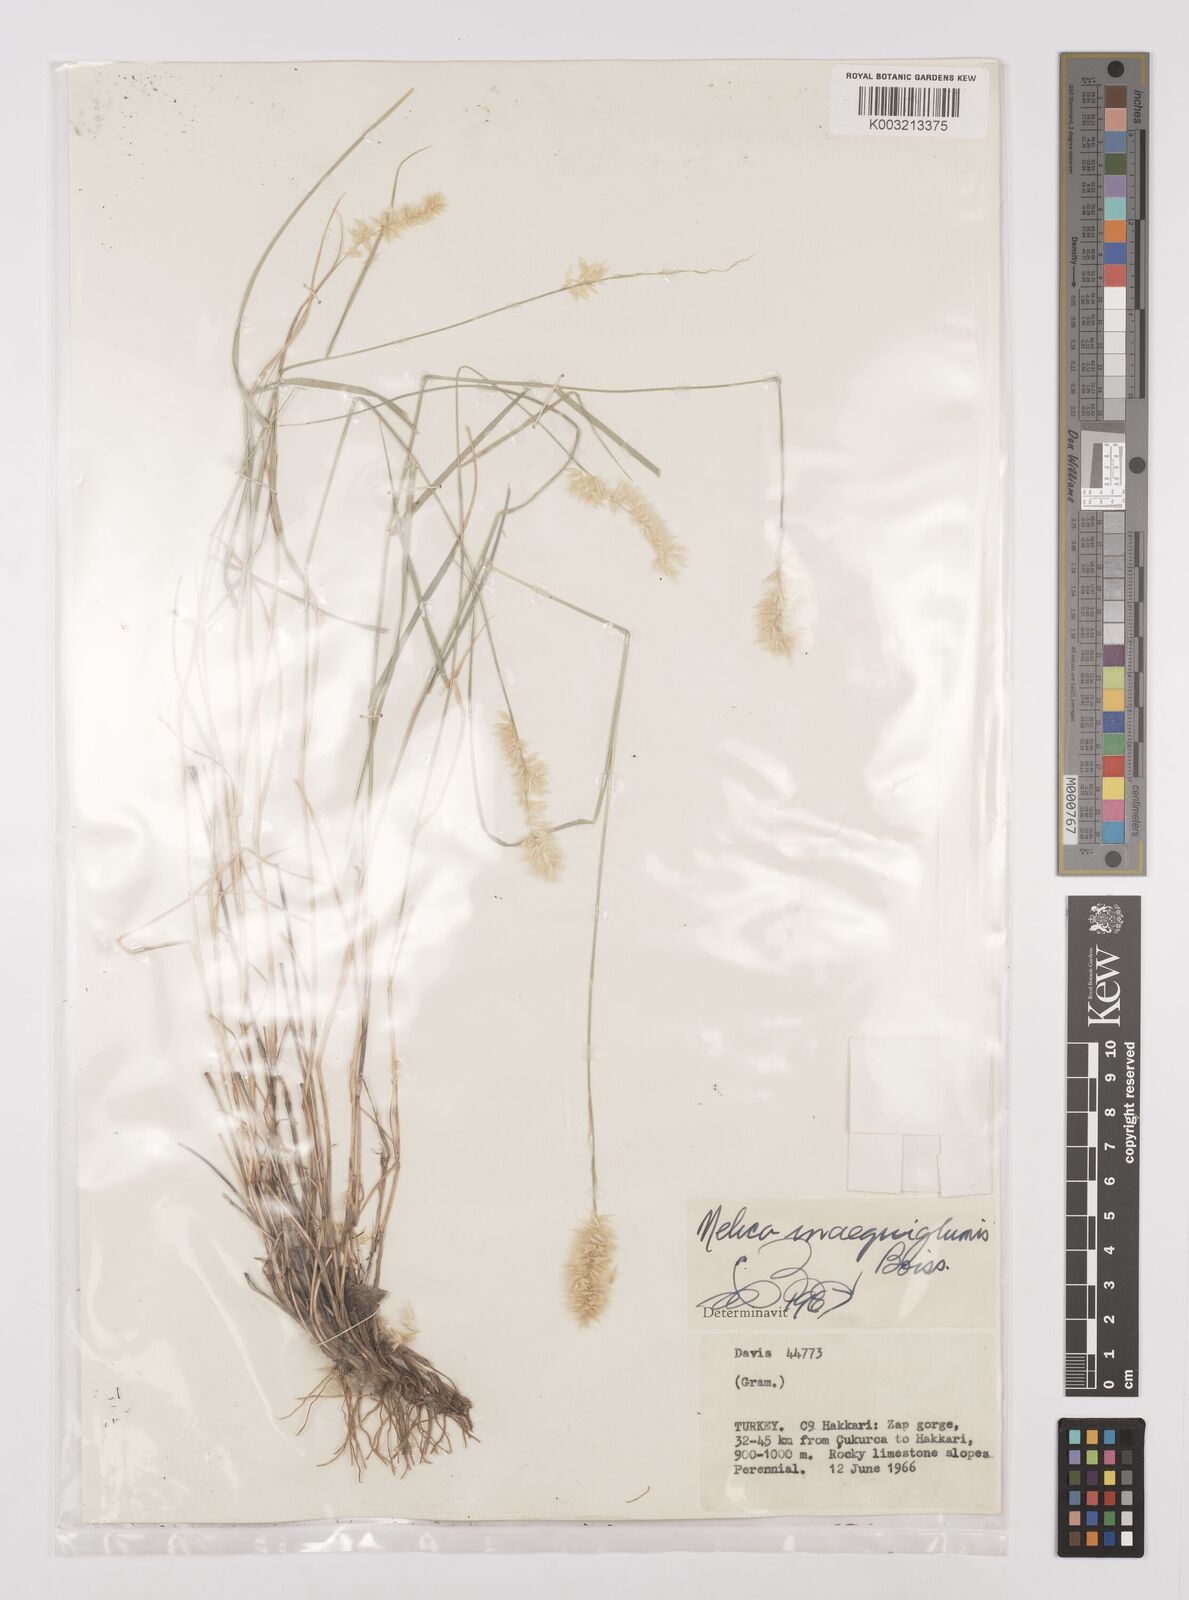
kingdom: Plantae
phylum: Tracheophyta
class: Liliopsida
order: Poales
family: Poaceae
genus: Melica
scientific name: Melica persica
